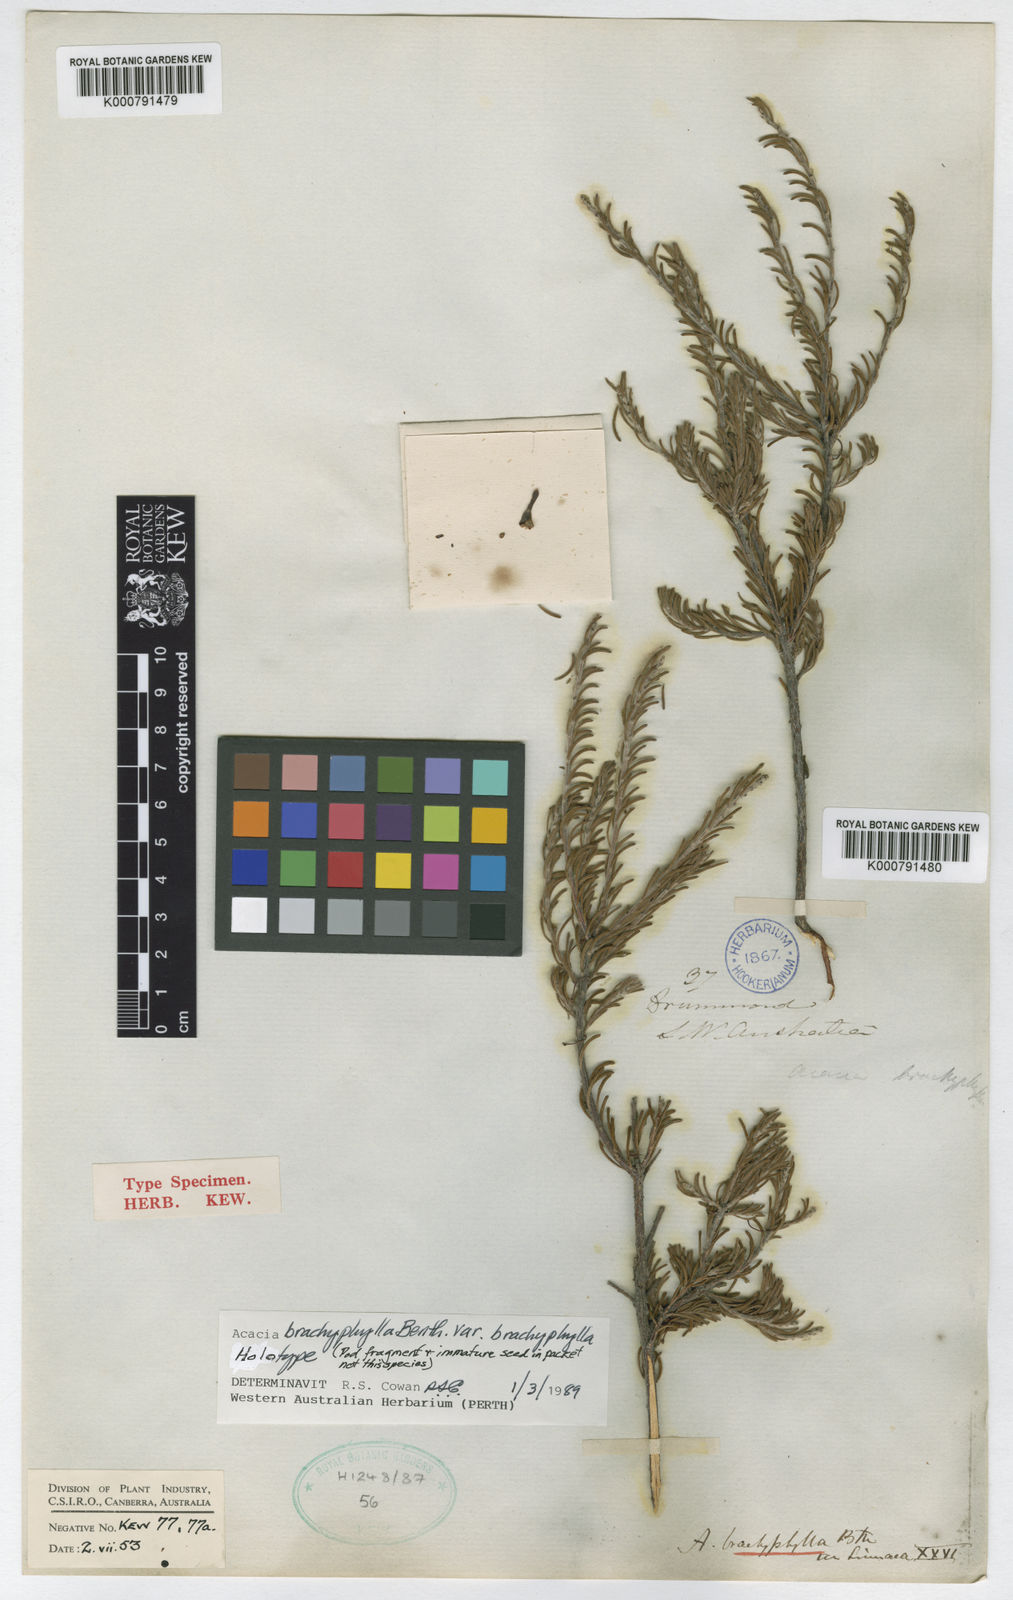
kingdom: Plantae
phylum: Tracheophyta
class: Magnoliopsida
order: Fabales
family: Fabaceae
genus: Acacia
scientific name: Acacia brachyphylla
